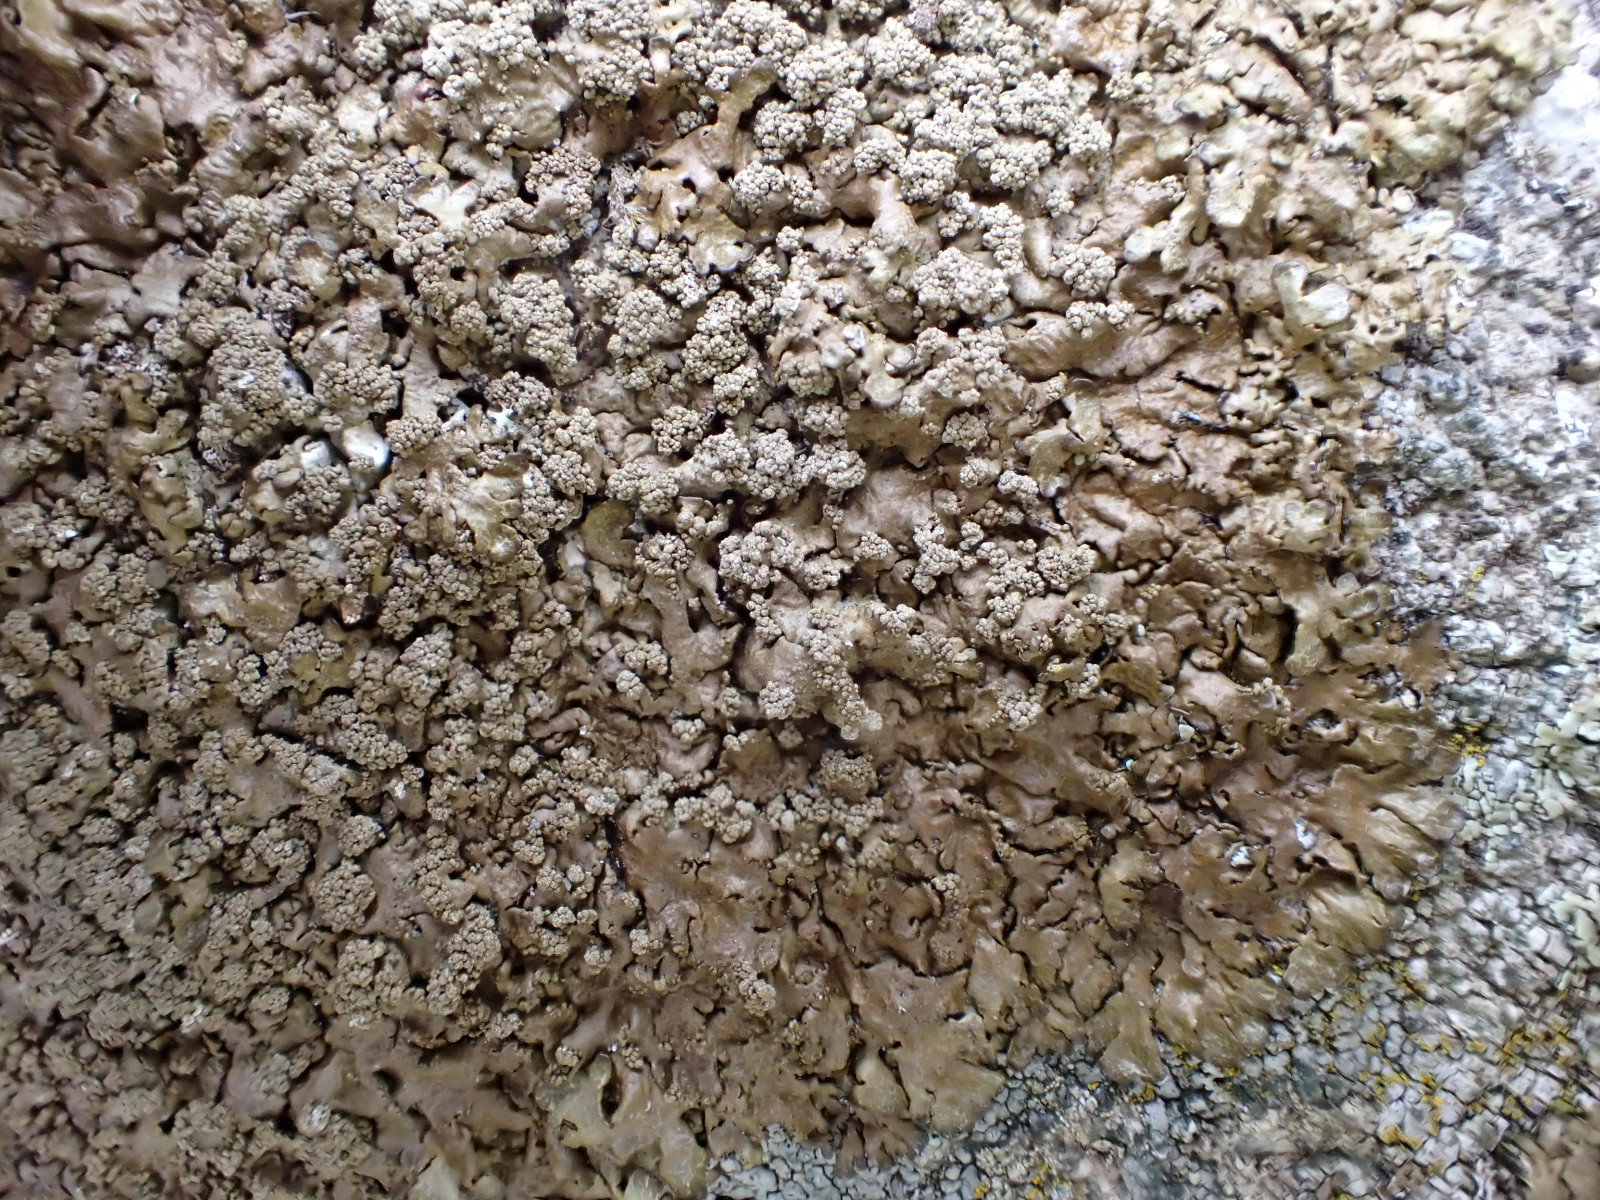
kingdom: Fungi
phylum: Ascomycota
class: Lecanoromycetes
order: Lecanorales
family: Parmeliaceae
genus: Xanthoparmelia
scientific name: Xanthoparmelia loxodes
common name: knudret skållav
